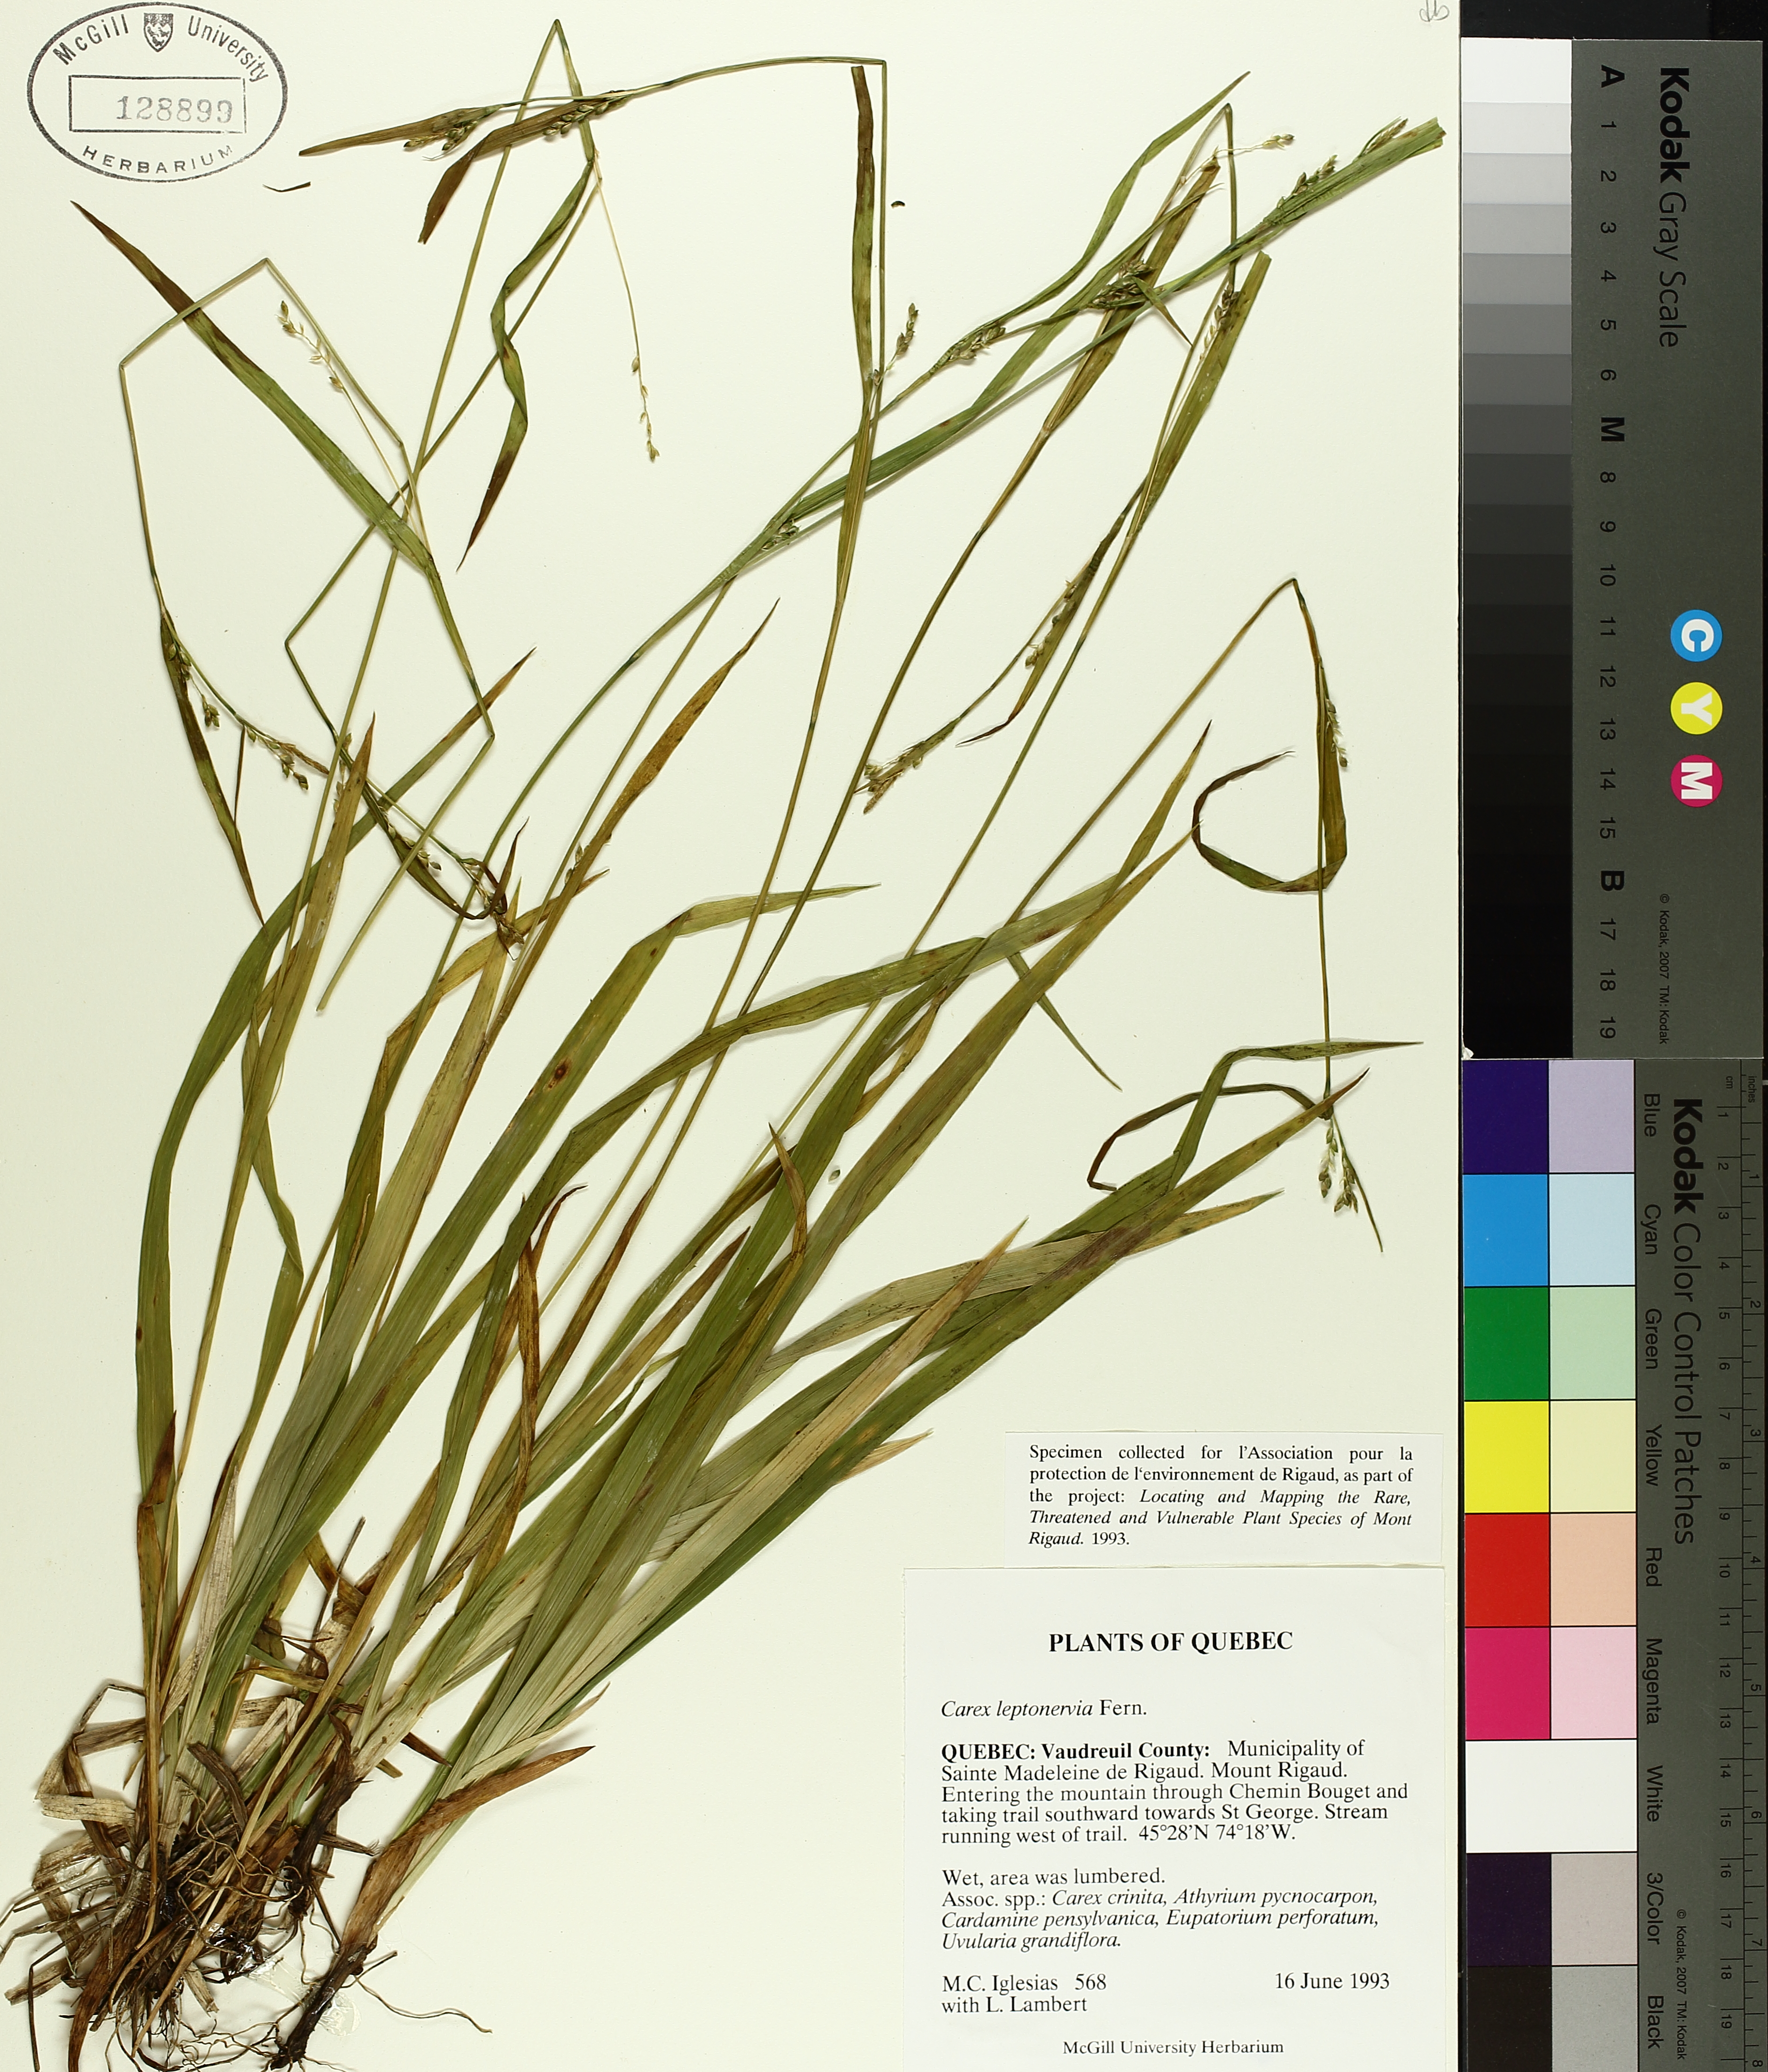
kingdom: Plantae
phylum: Tracheophyta
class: Liliopsida
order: Poales
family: Cyperaceae
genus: Carex
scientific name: Carex leptonervia
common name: Few-nerved wood sedge
